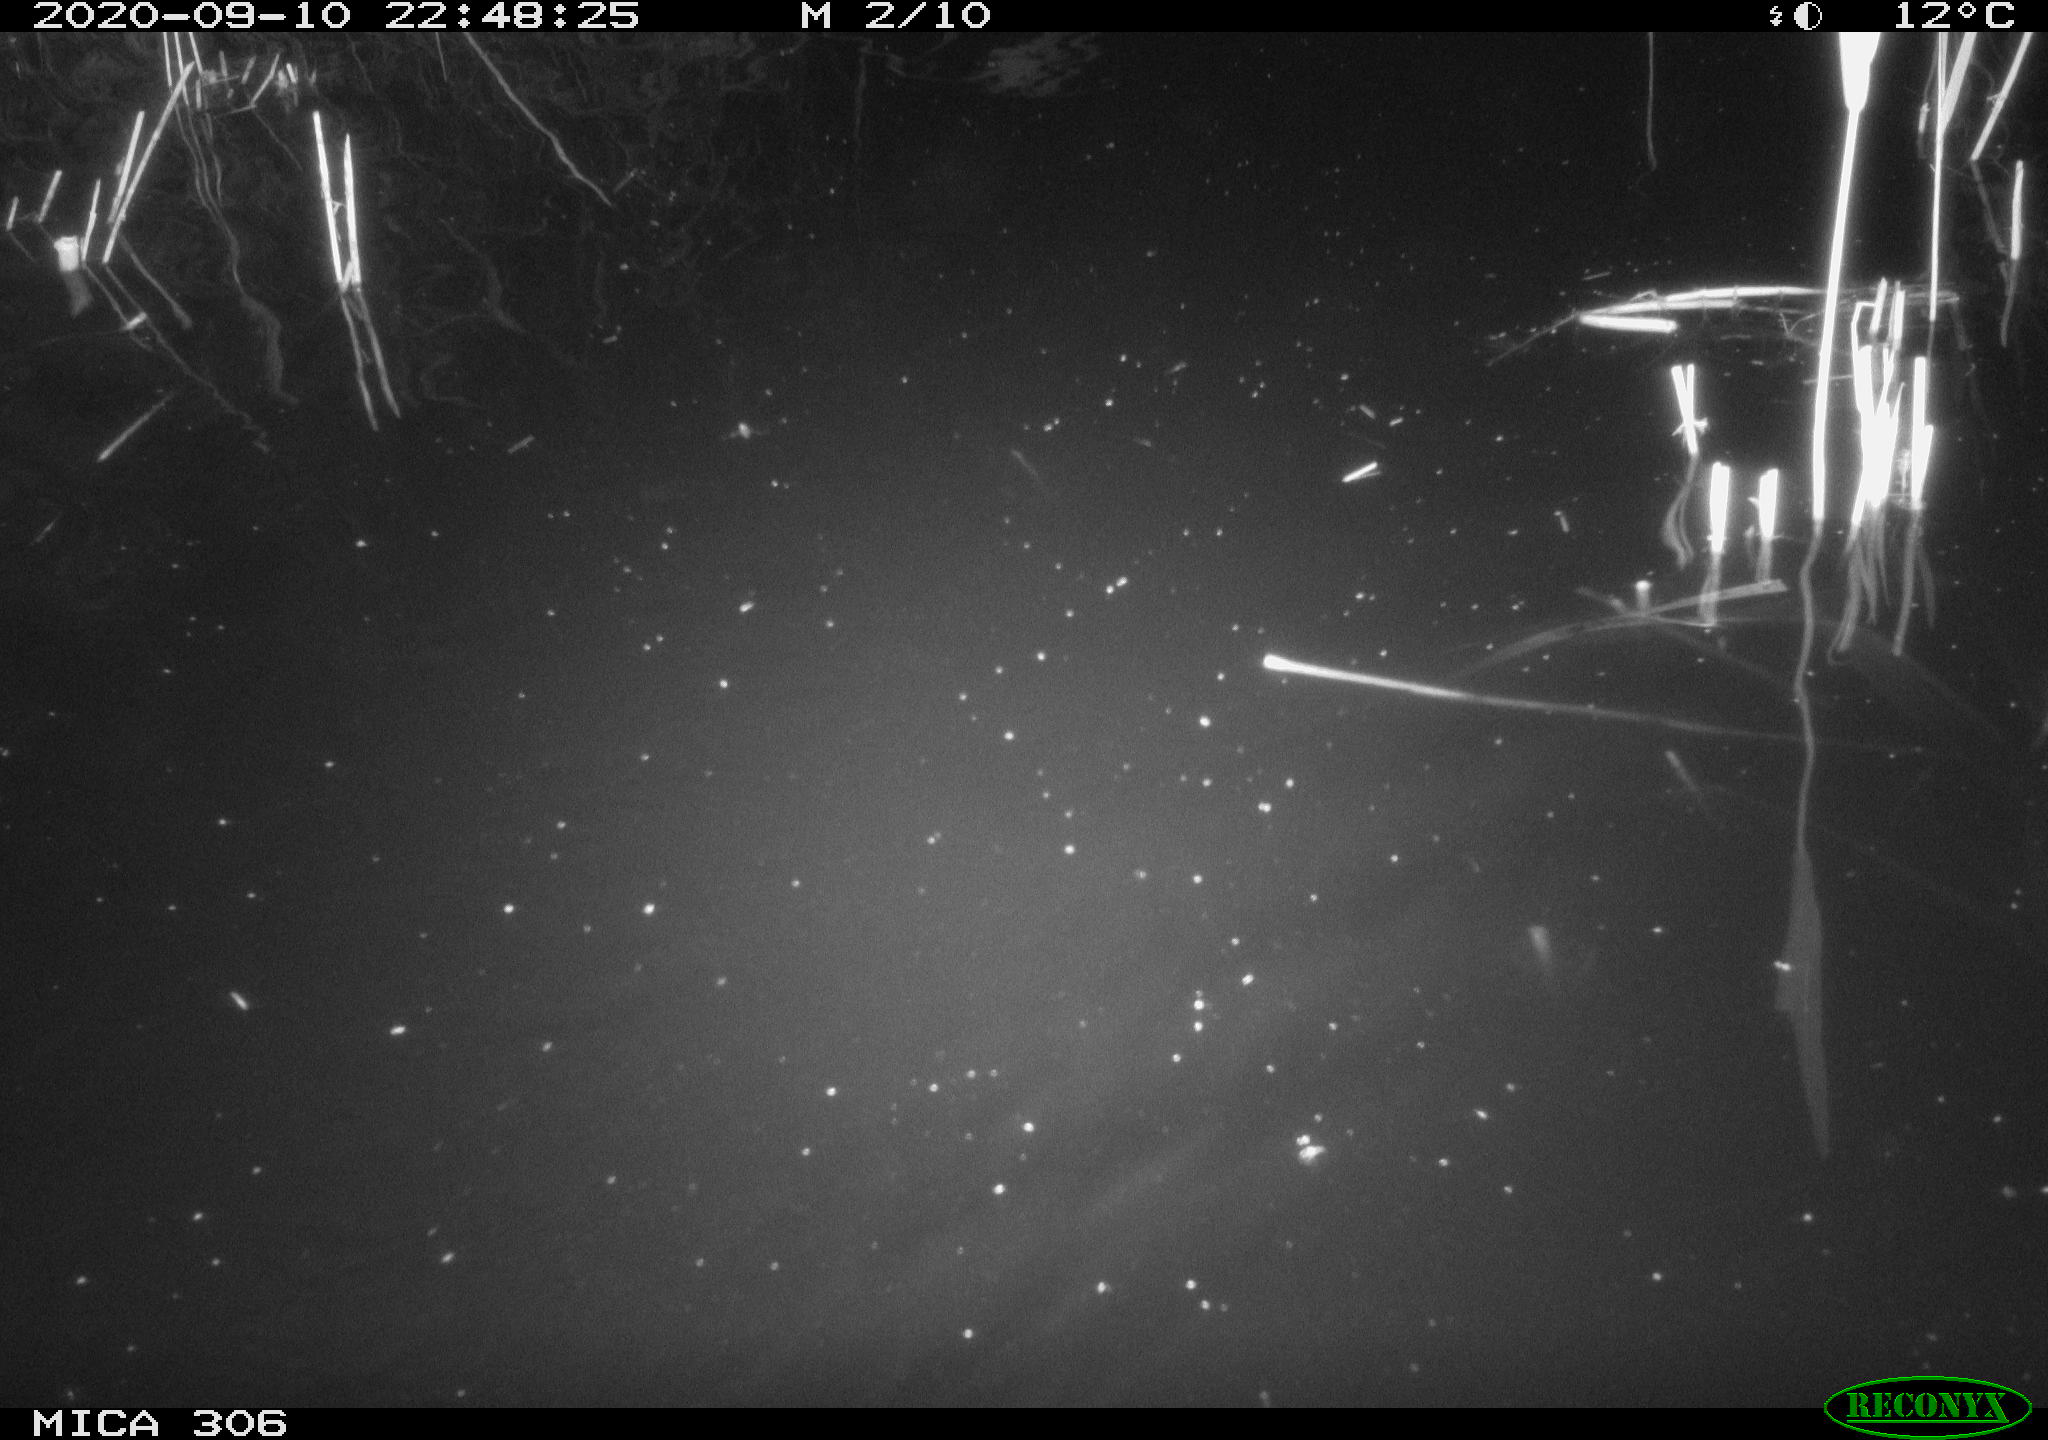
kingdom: Animalia
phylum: Chordata
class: Mammalia
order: Rodentia
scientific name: Rodentia
